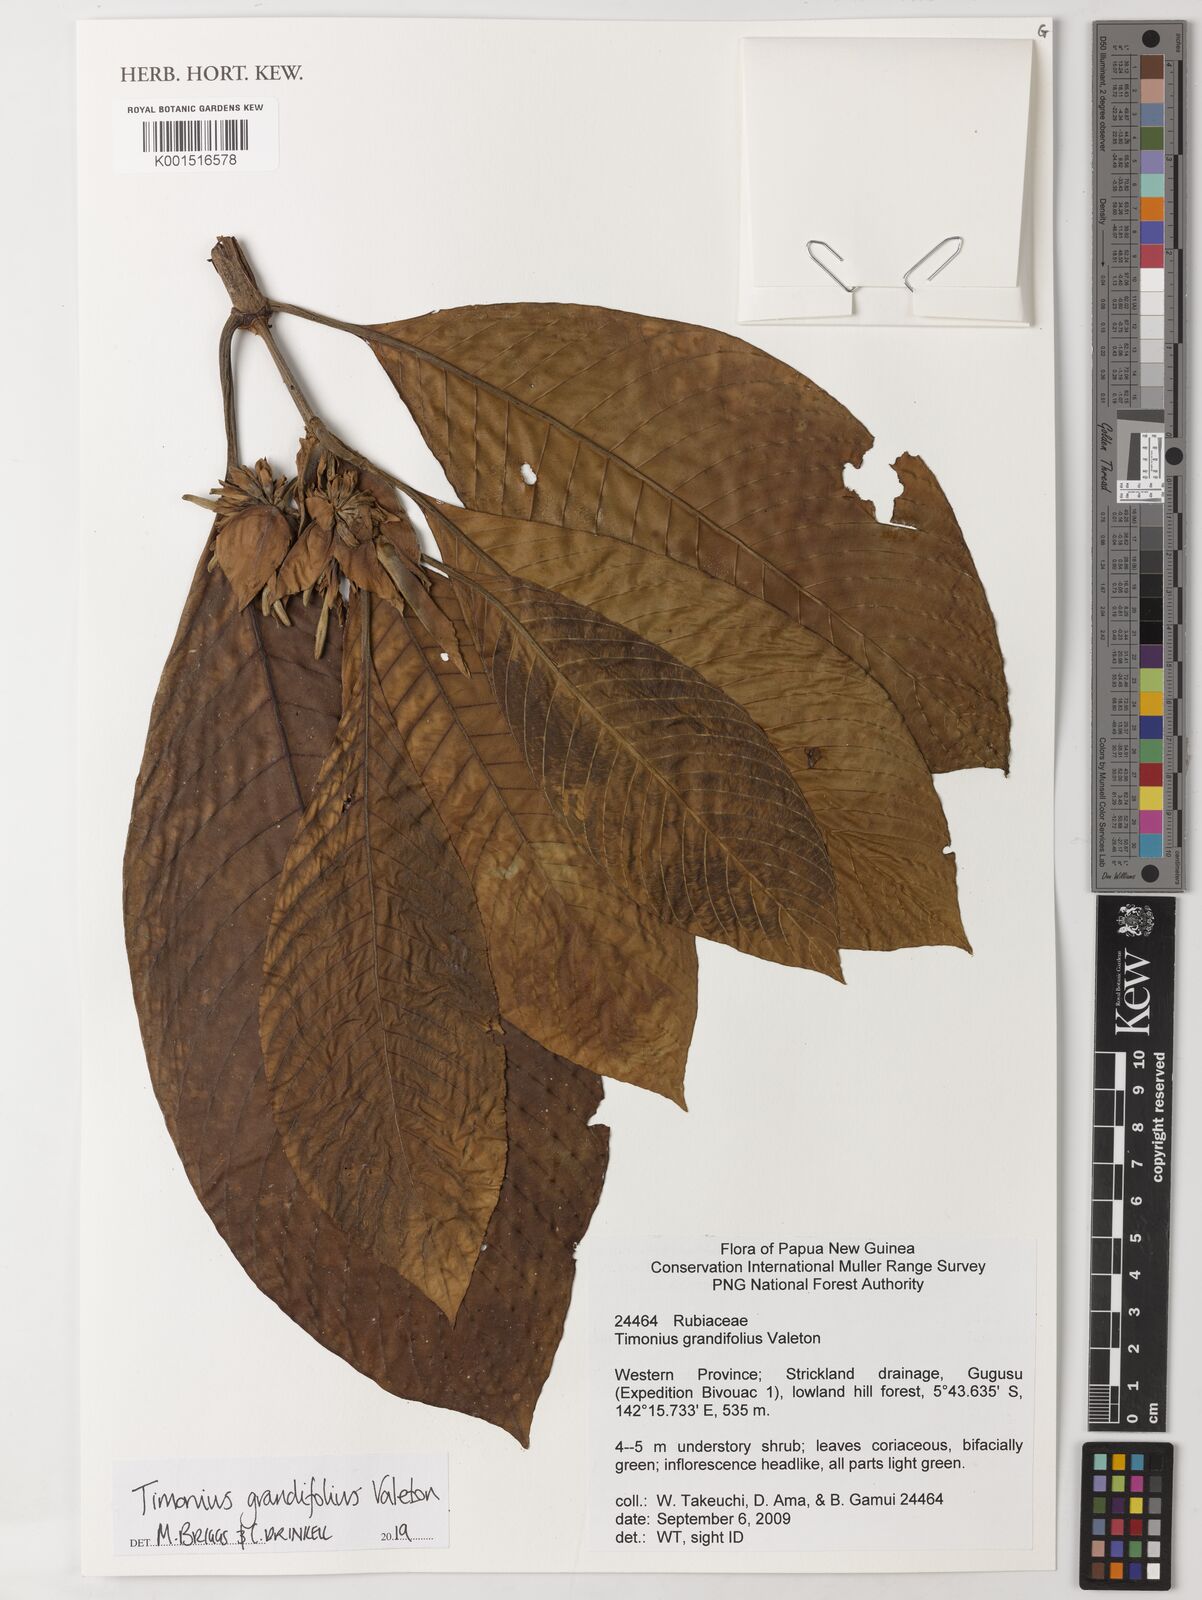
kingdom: Plantae
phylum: Tracheophyta
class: Magnoliopsida
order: Gentianales
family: Rubiaceae
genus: Timonius
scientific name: Timonius grandifolius
